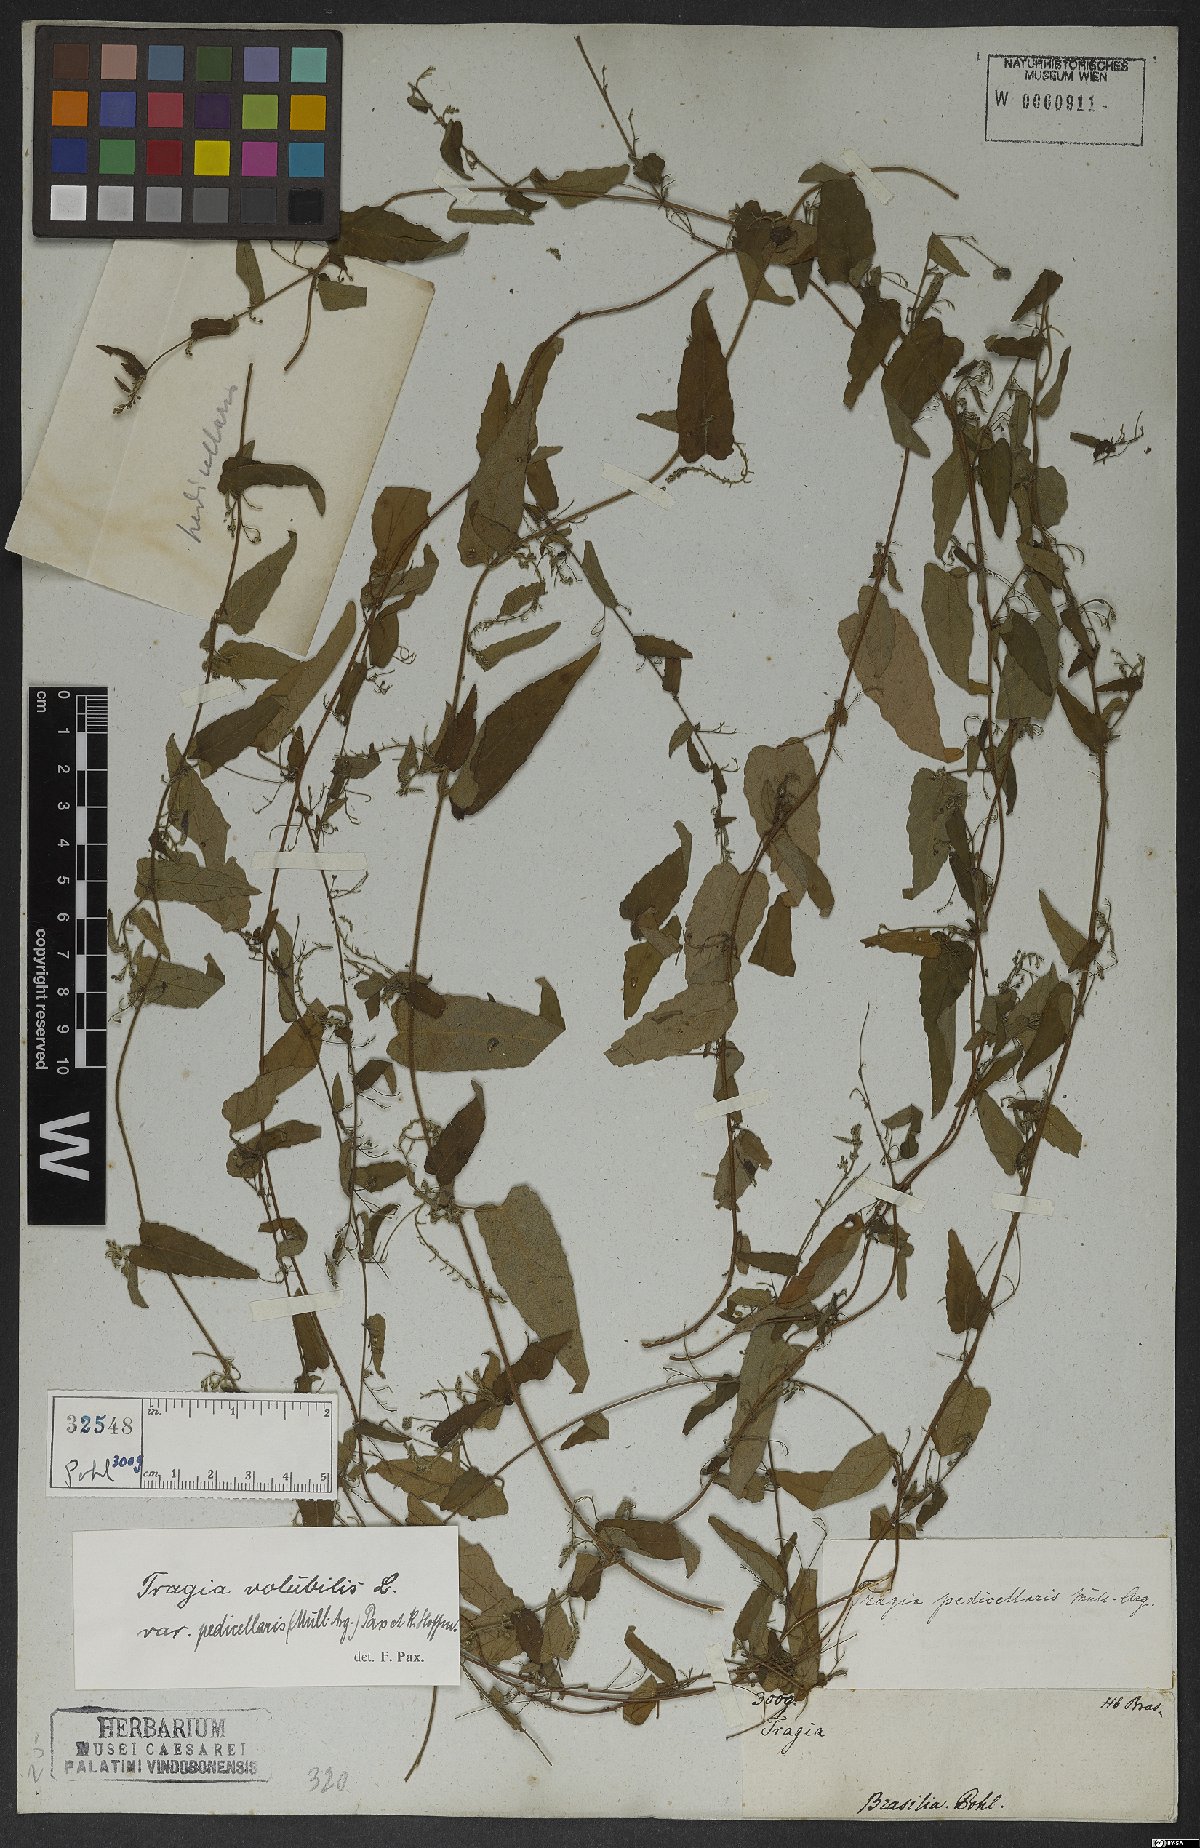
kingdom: Plantae
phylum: Tracheophyta
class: Magnoliopsida
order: Malpighiales
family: Euphorbiaceae
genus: Tragia
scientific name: Tragia volubilis
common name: Twining cow-itch
